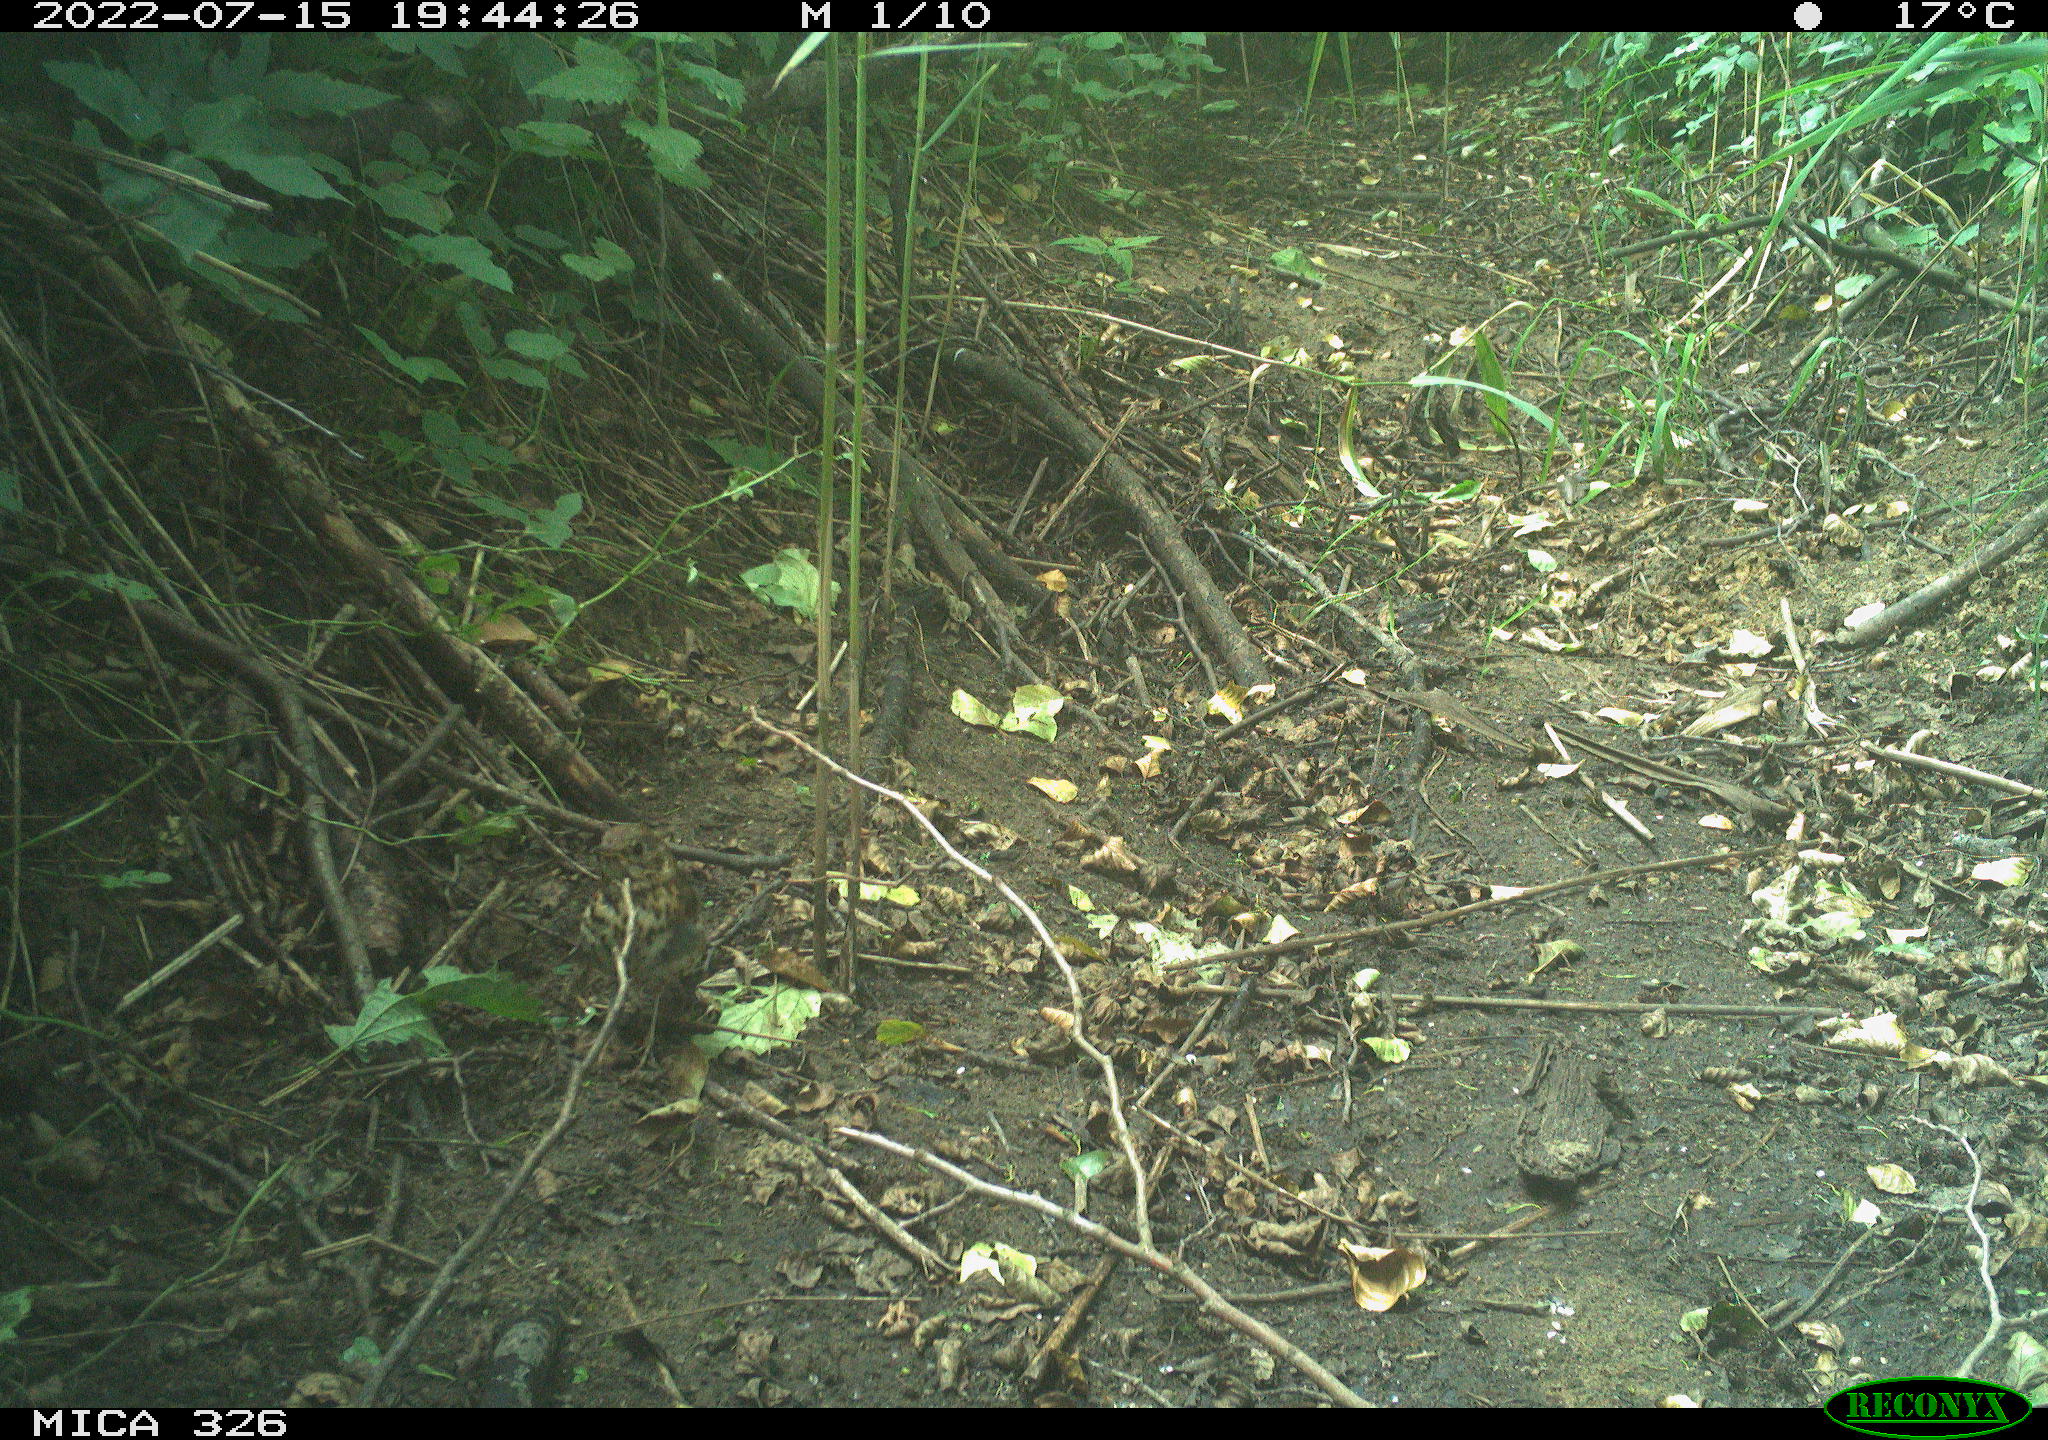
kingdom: Animalia
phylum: Chordata
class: Aves
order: Passeriformes
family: Turdidae
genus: Turdus
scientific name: Turdus philomelos
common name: Song thrush
